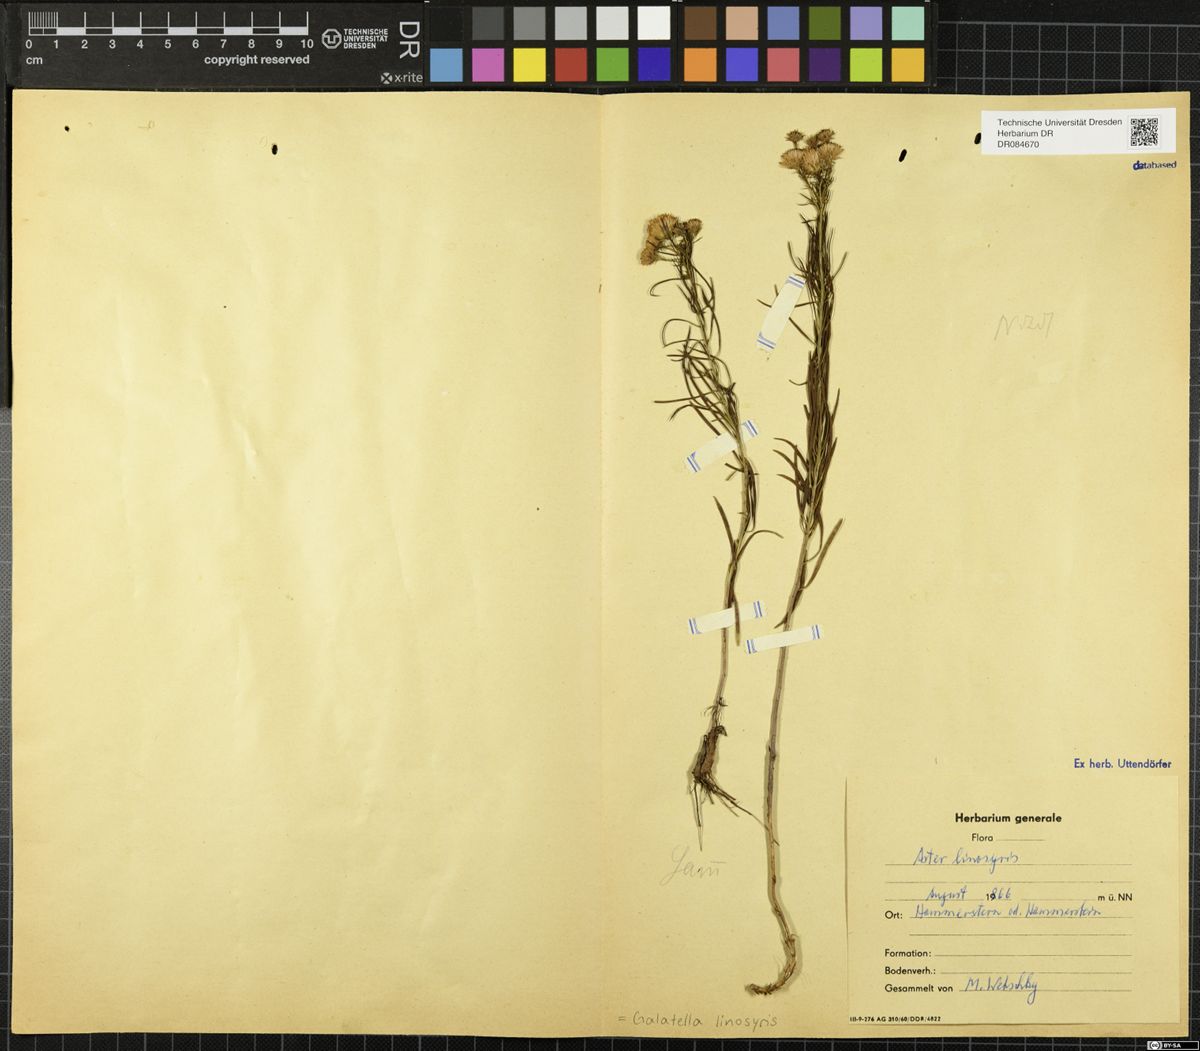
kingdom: Plantae
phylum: Tracheophyta
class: Magnoliopsida
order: Asterales
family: Asteraceae
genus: Galatella
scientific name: Galatella linosyris
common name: Goldilocks aster
